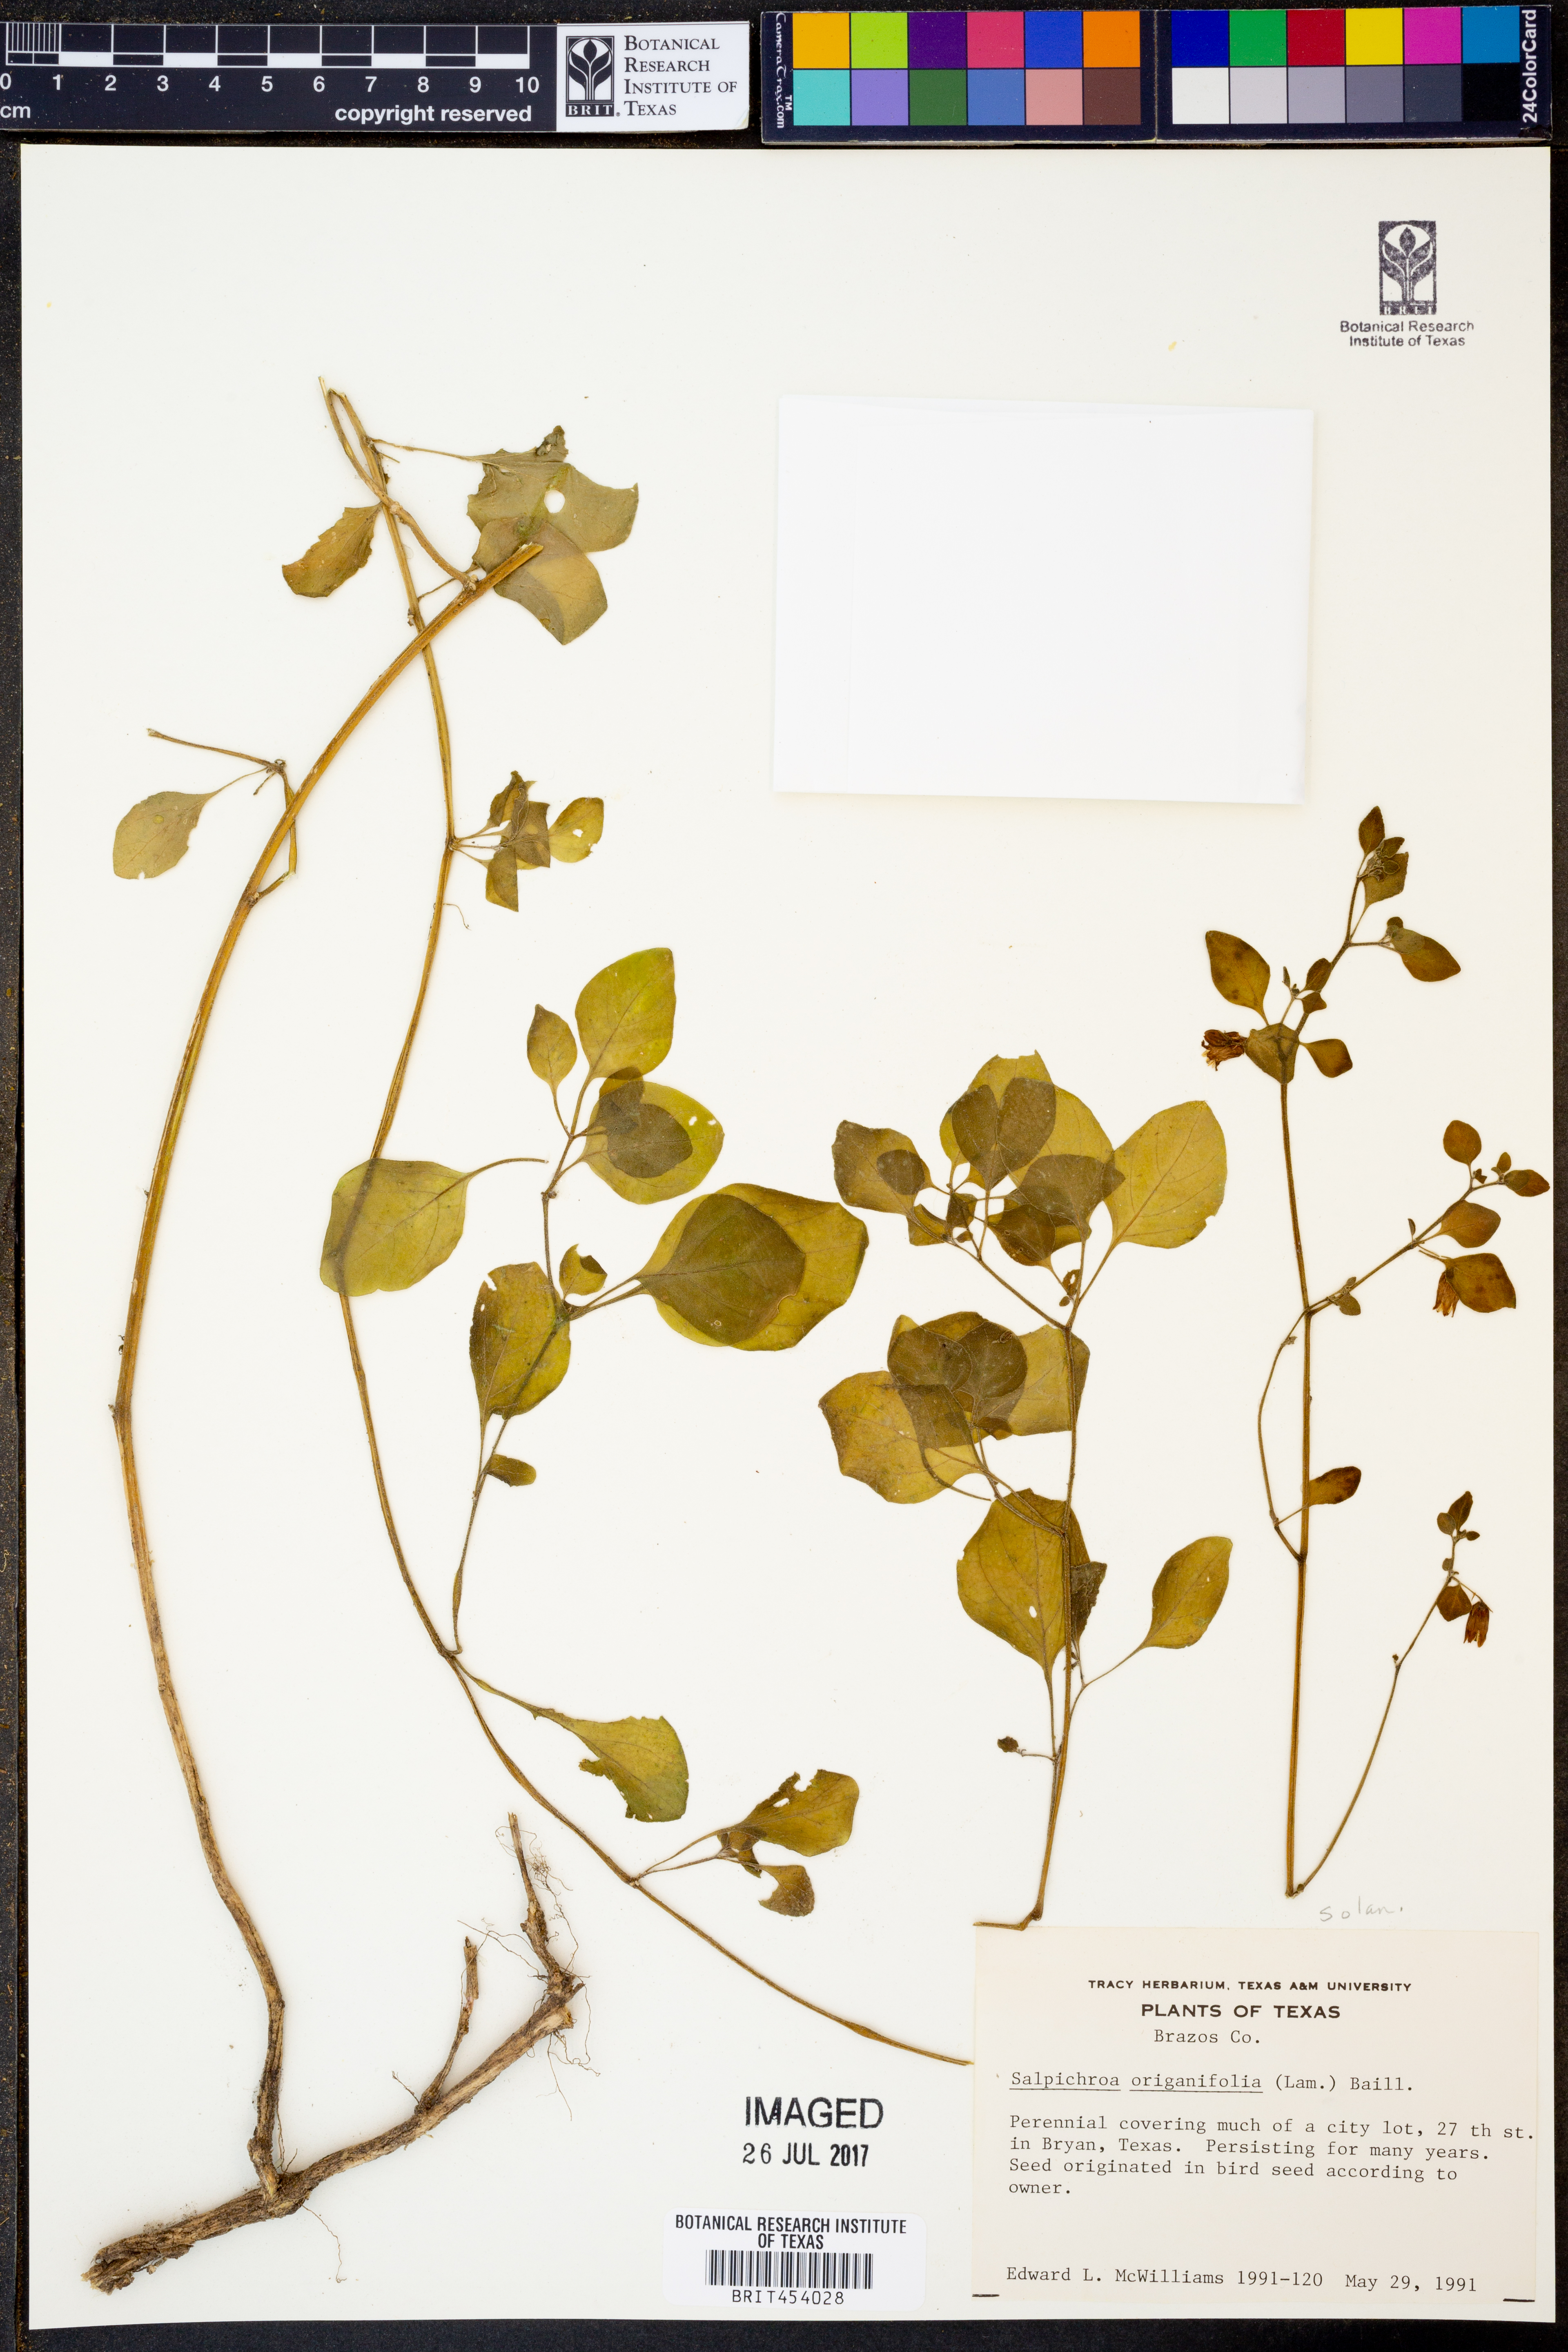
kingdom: Plantae
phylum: Tracheophyta
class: Magnoliopsida
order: Solanales
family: Solanaceae
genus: Salpichroa
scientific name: Salpichroa origanifolia
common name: Lily-of-the-valley-vine
